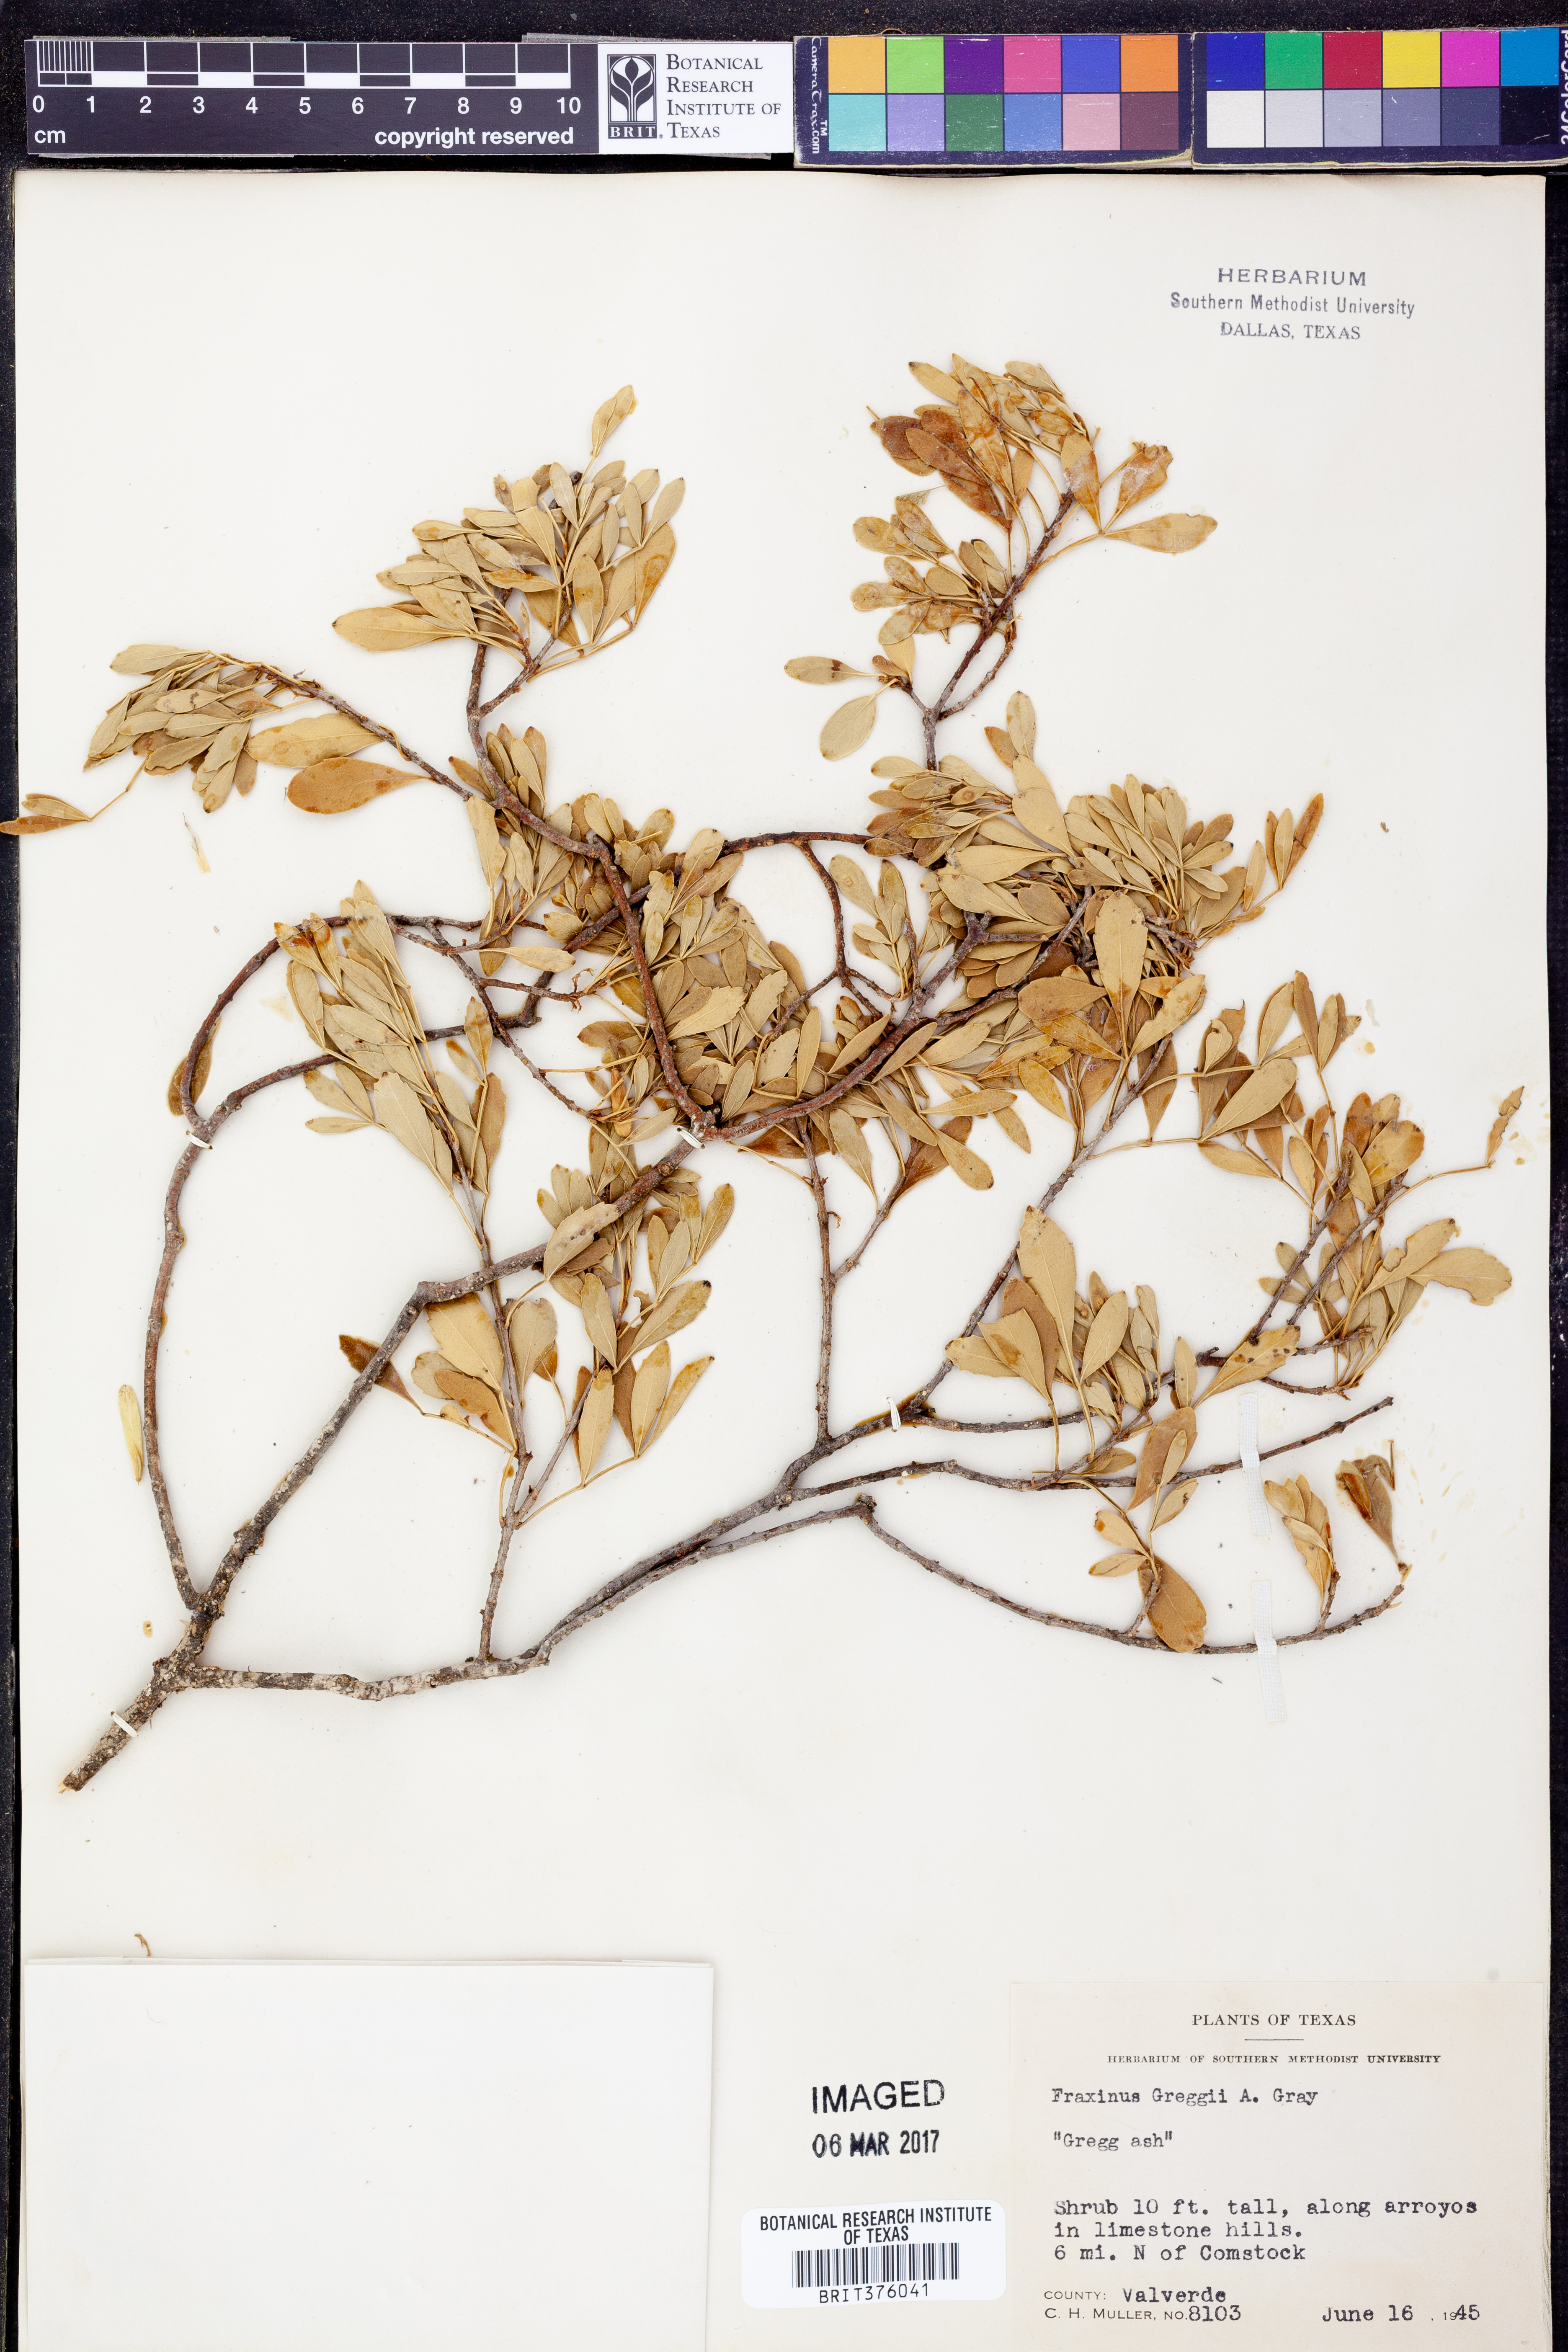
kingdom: Plantae
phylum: Tracheophyta
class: Magnoliopsida
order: Lamiales
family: Oleaceae
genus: Fraxinus
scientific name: Fraxinus greggii
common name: Gregg ash
